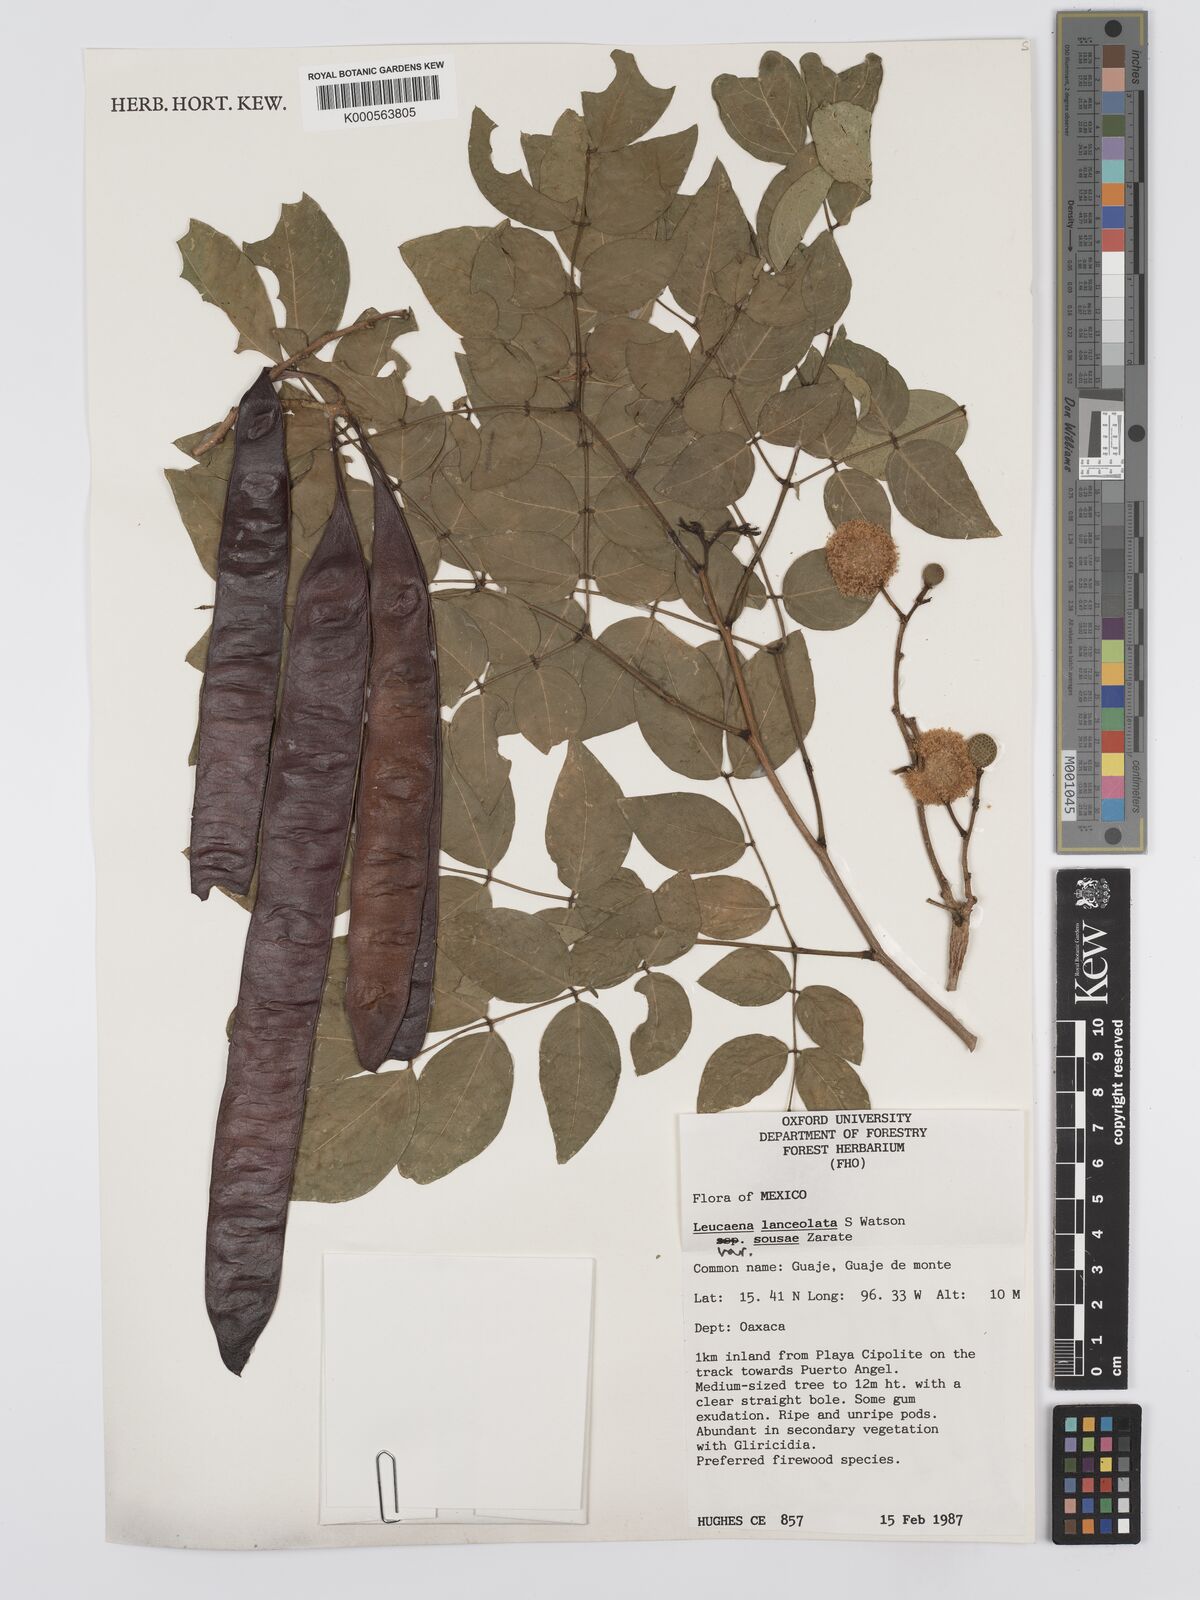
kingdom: Plantae
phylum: Tracheophyta
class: Magnoliopsida
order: Fabales
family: Fabaceae
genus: Leucaena
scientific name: Leucaena lanceolata
